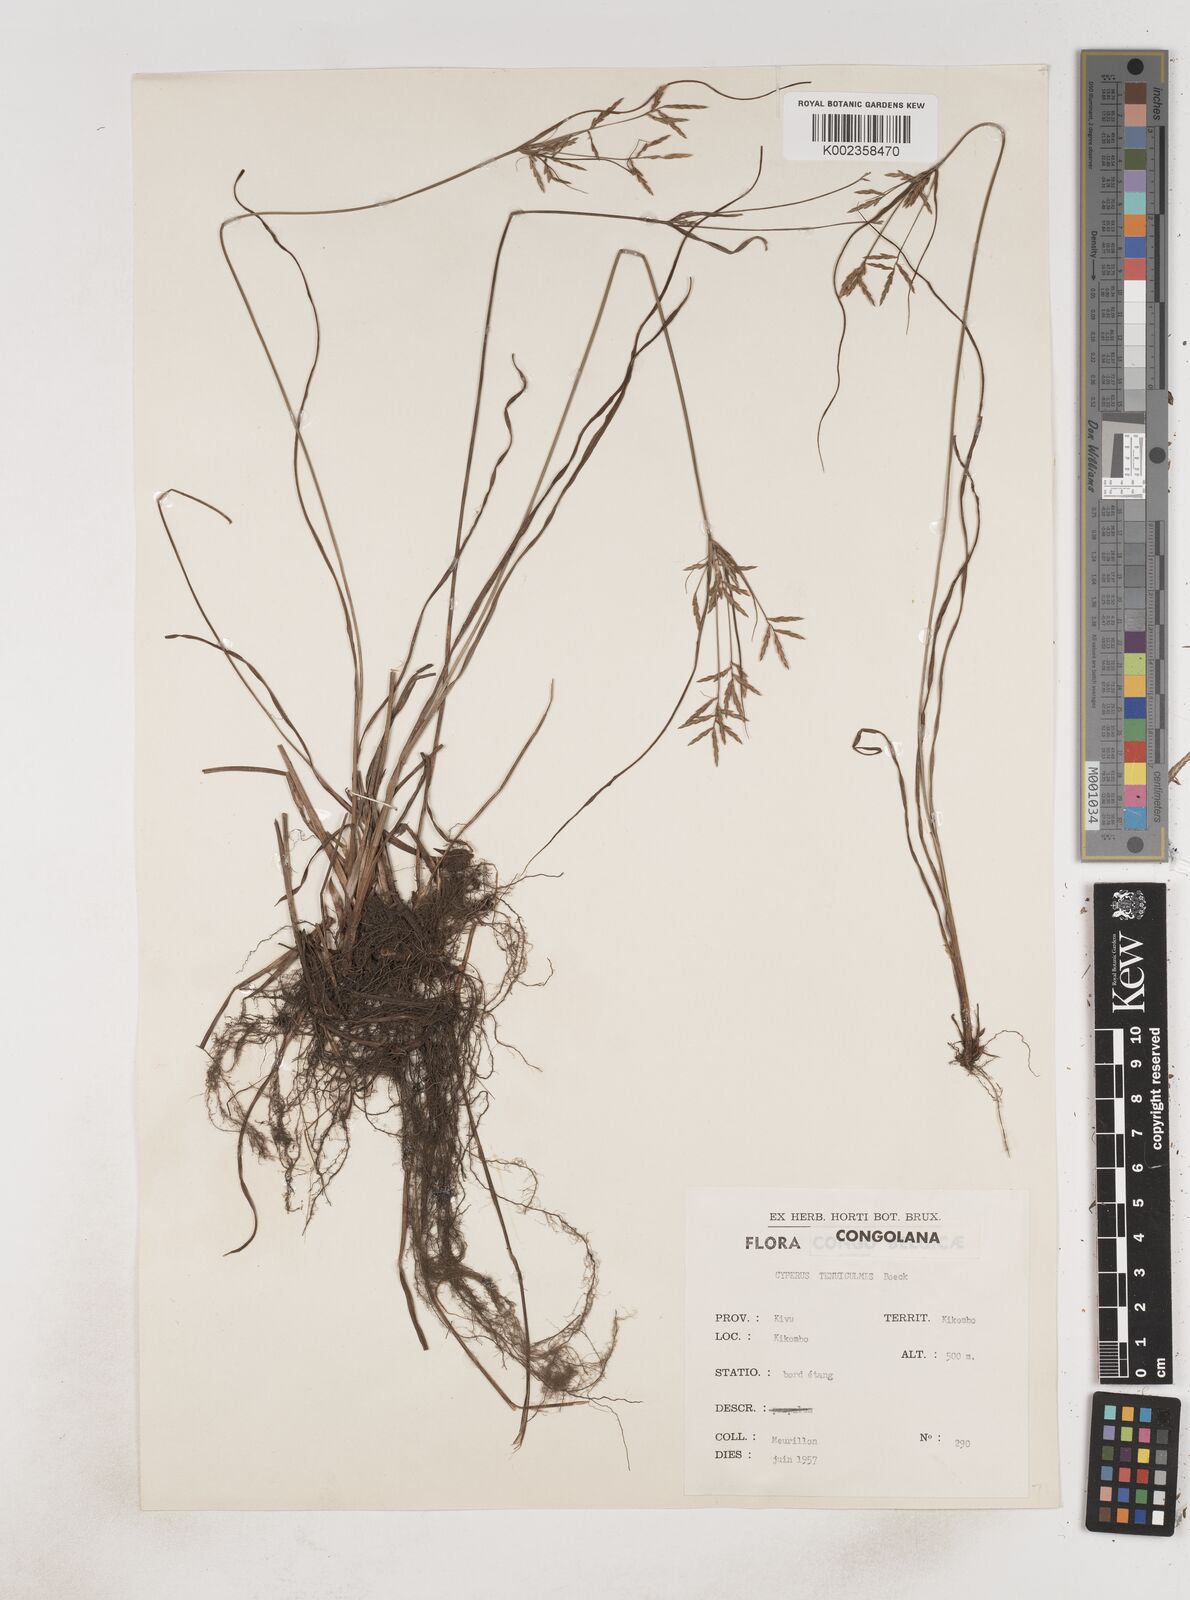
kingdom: Plantae
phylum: Tracheophyta
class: Liliopsida
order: Poales
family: Cyperaceae
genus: Cyperus
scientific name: Cyperus dilatatus
